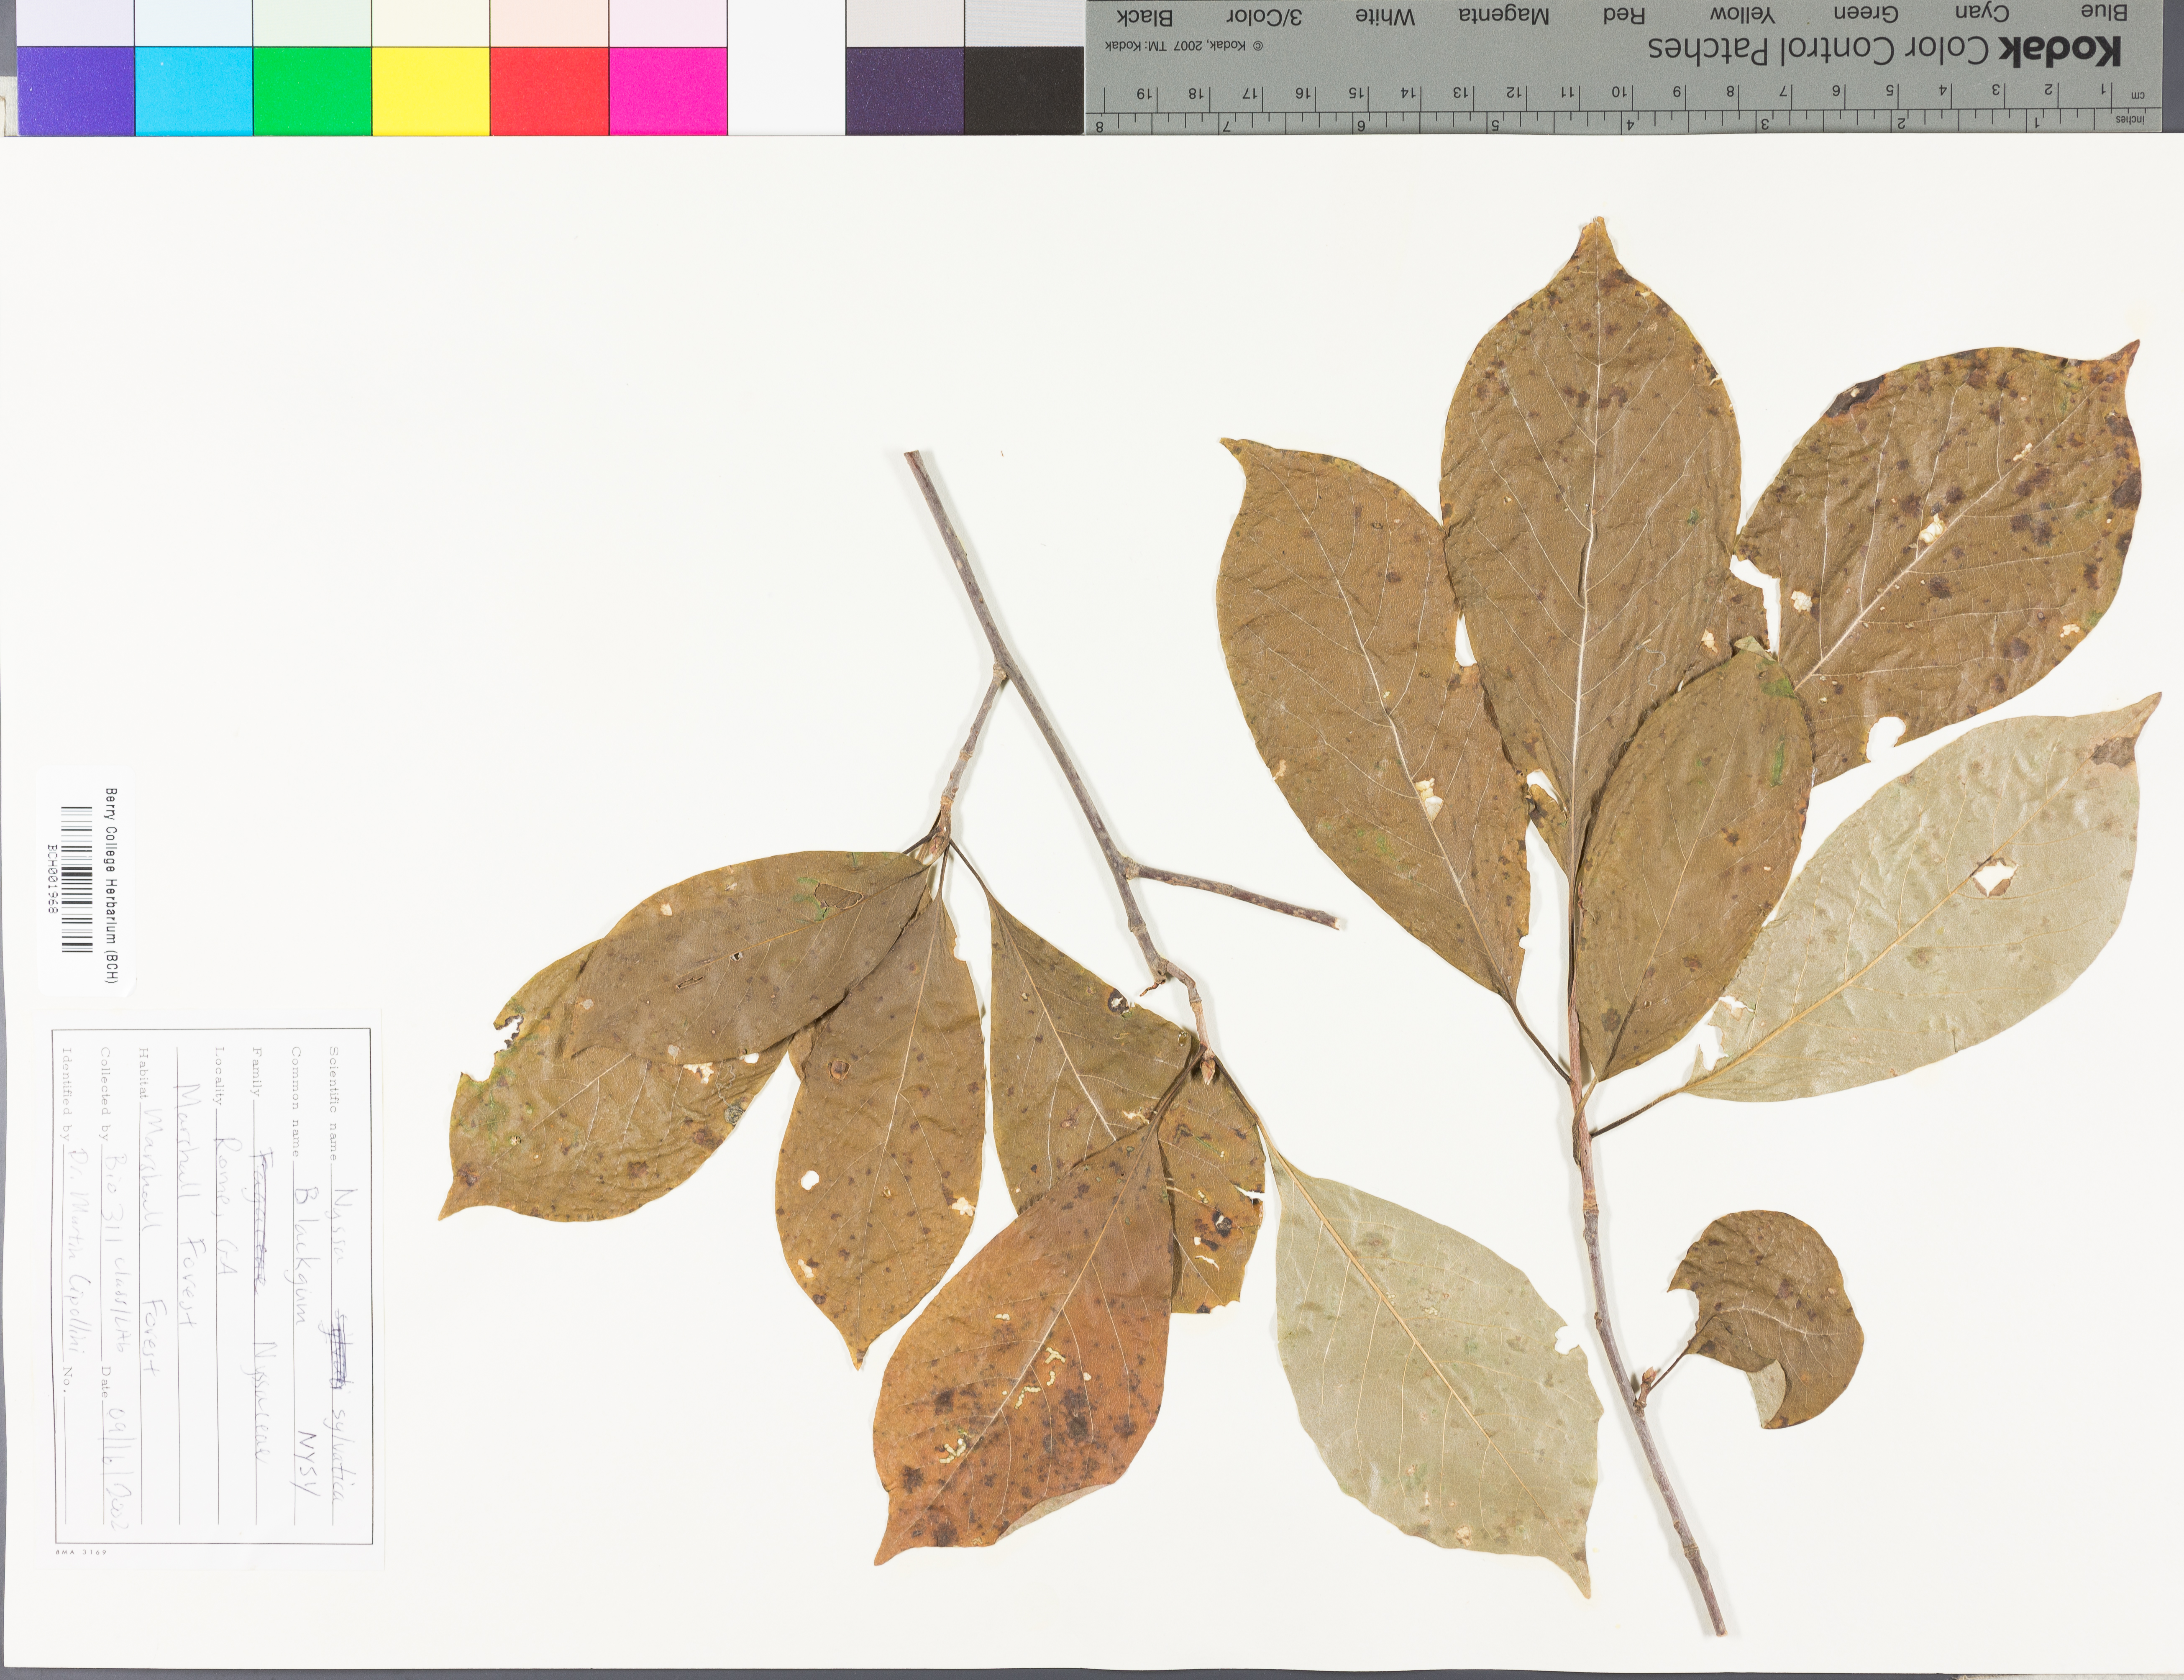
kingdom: Plantae
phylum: Tracheophyta
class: Magnoliopsida
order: Cornales
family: Nyssaceae
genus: Nyssa
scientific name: Nyssa sylvatica
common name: Black tupelo
